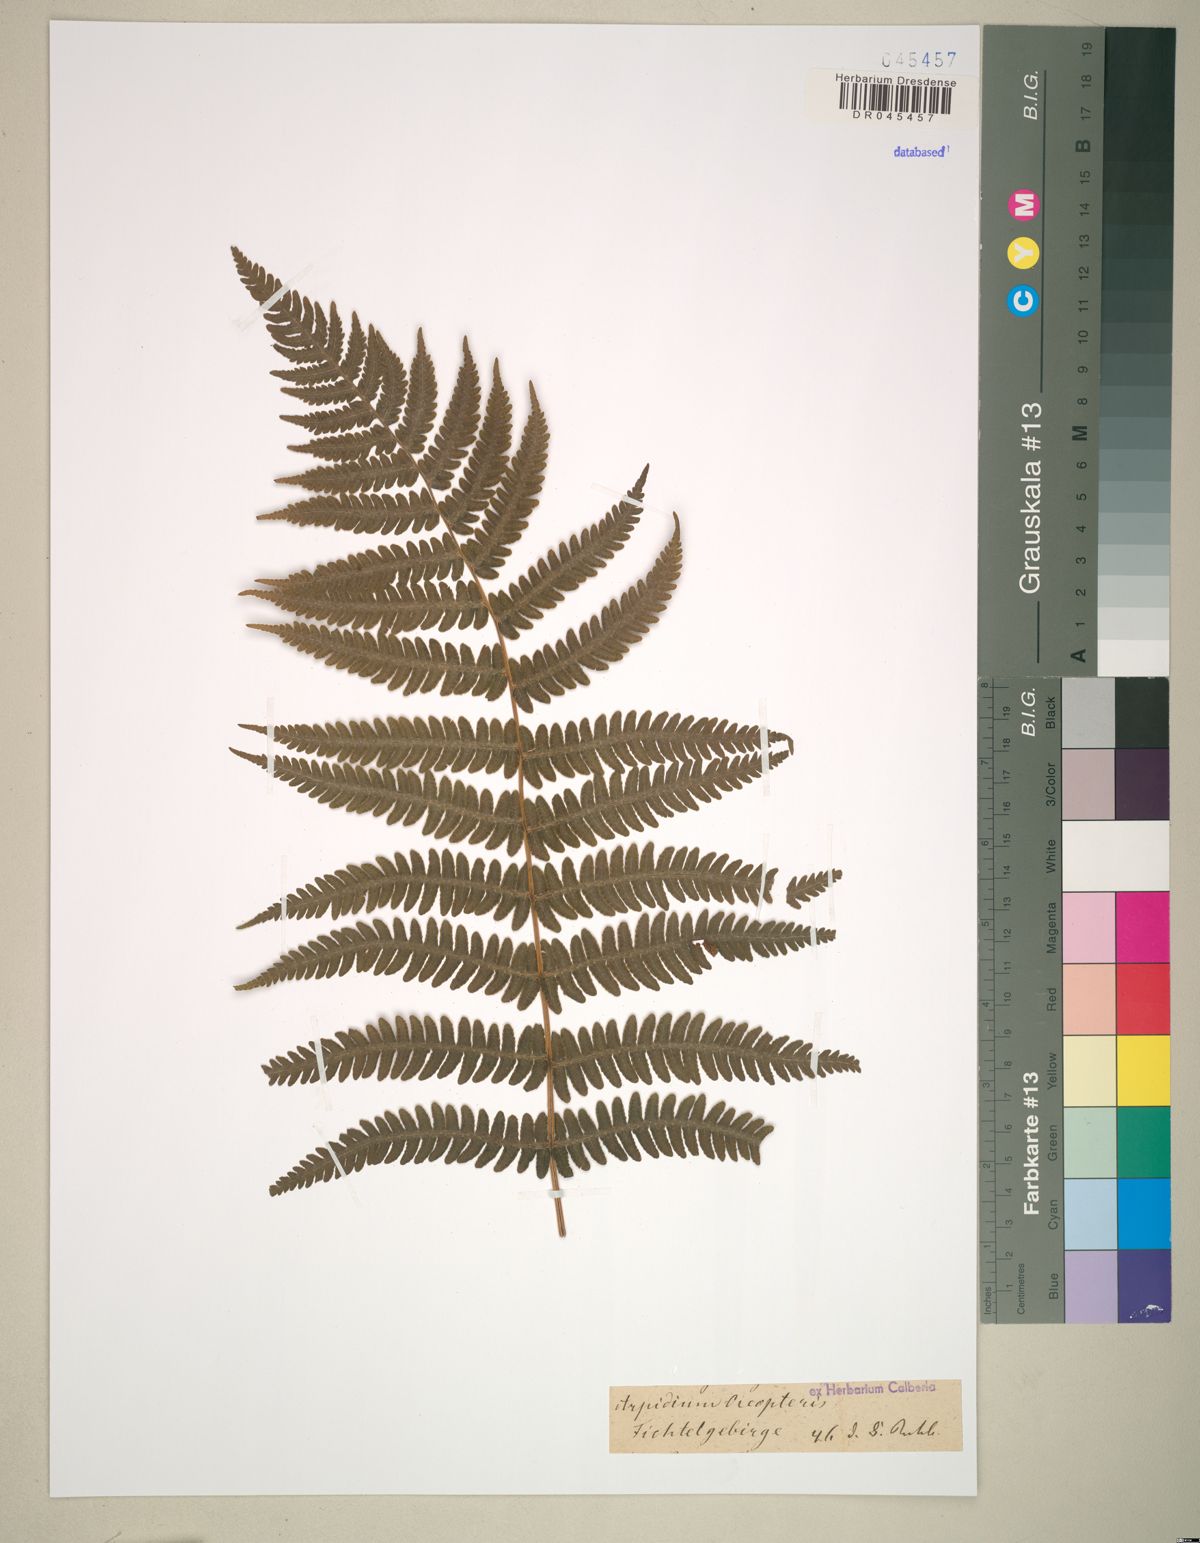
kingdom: Plantae
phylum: Tracheophyta
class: Polypodiopsida
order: Polypodiales
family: Thelypteridaceae
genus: Oreopteris
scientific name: Oreopteris limbosperma
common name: Lemon-scented fern
